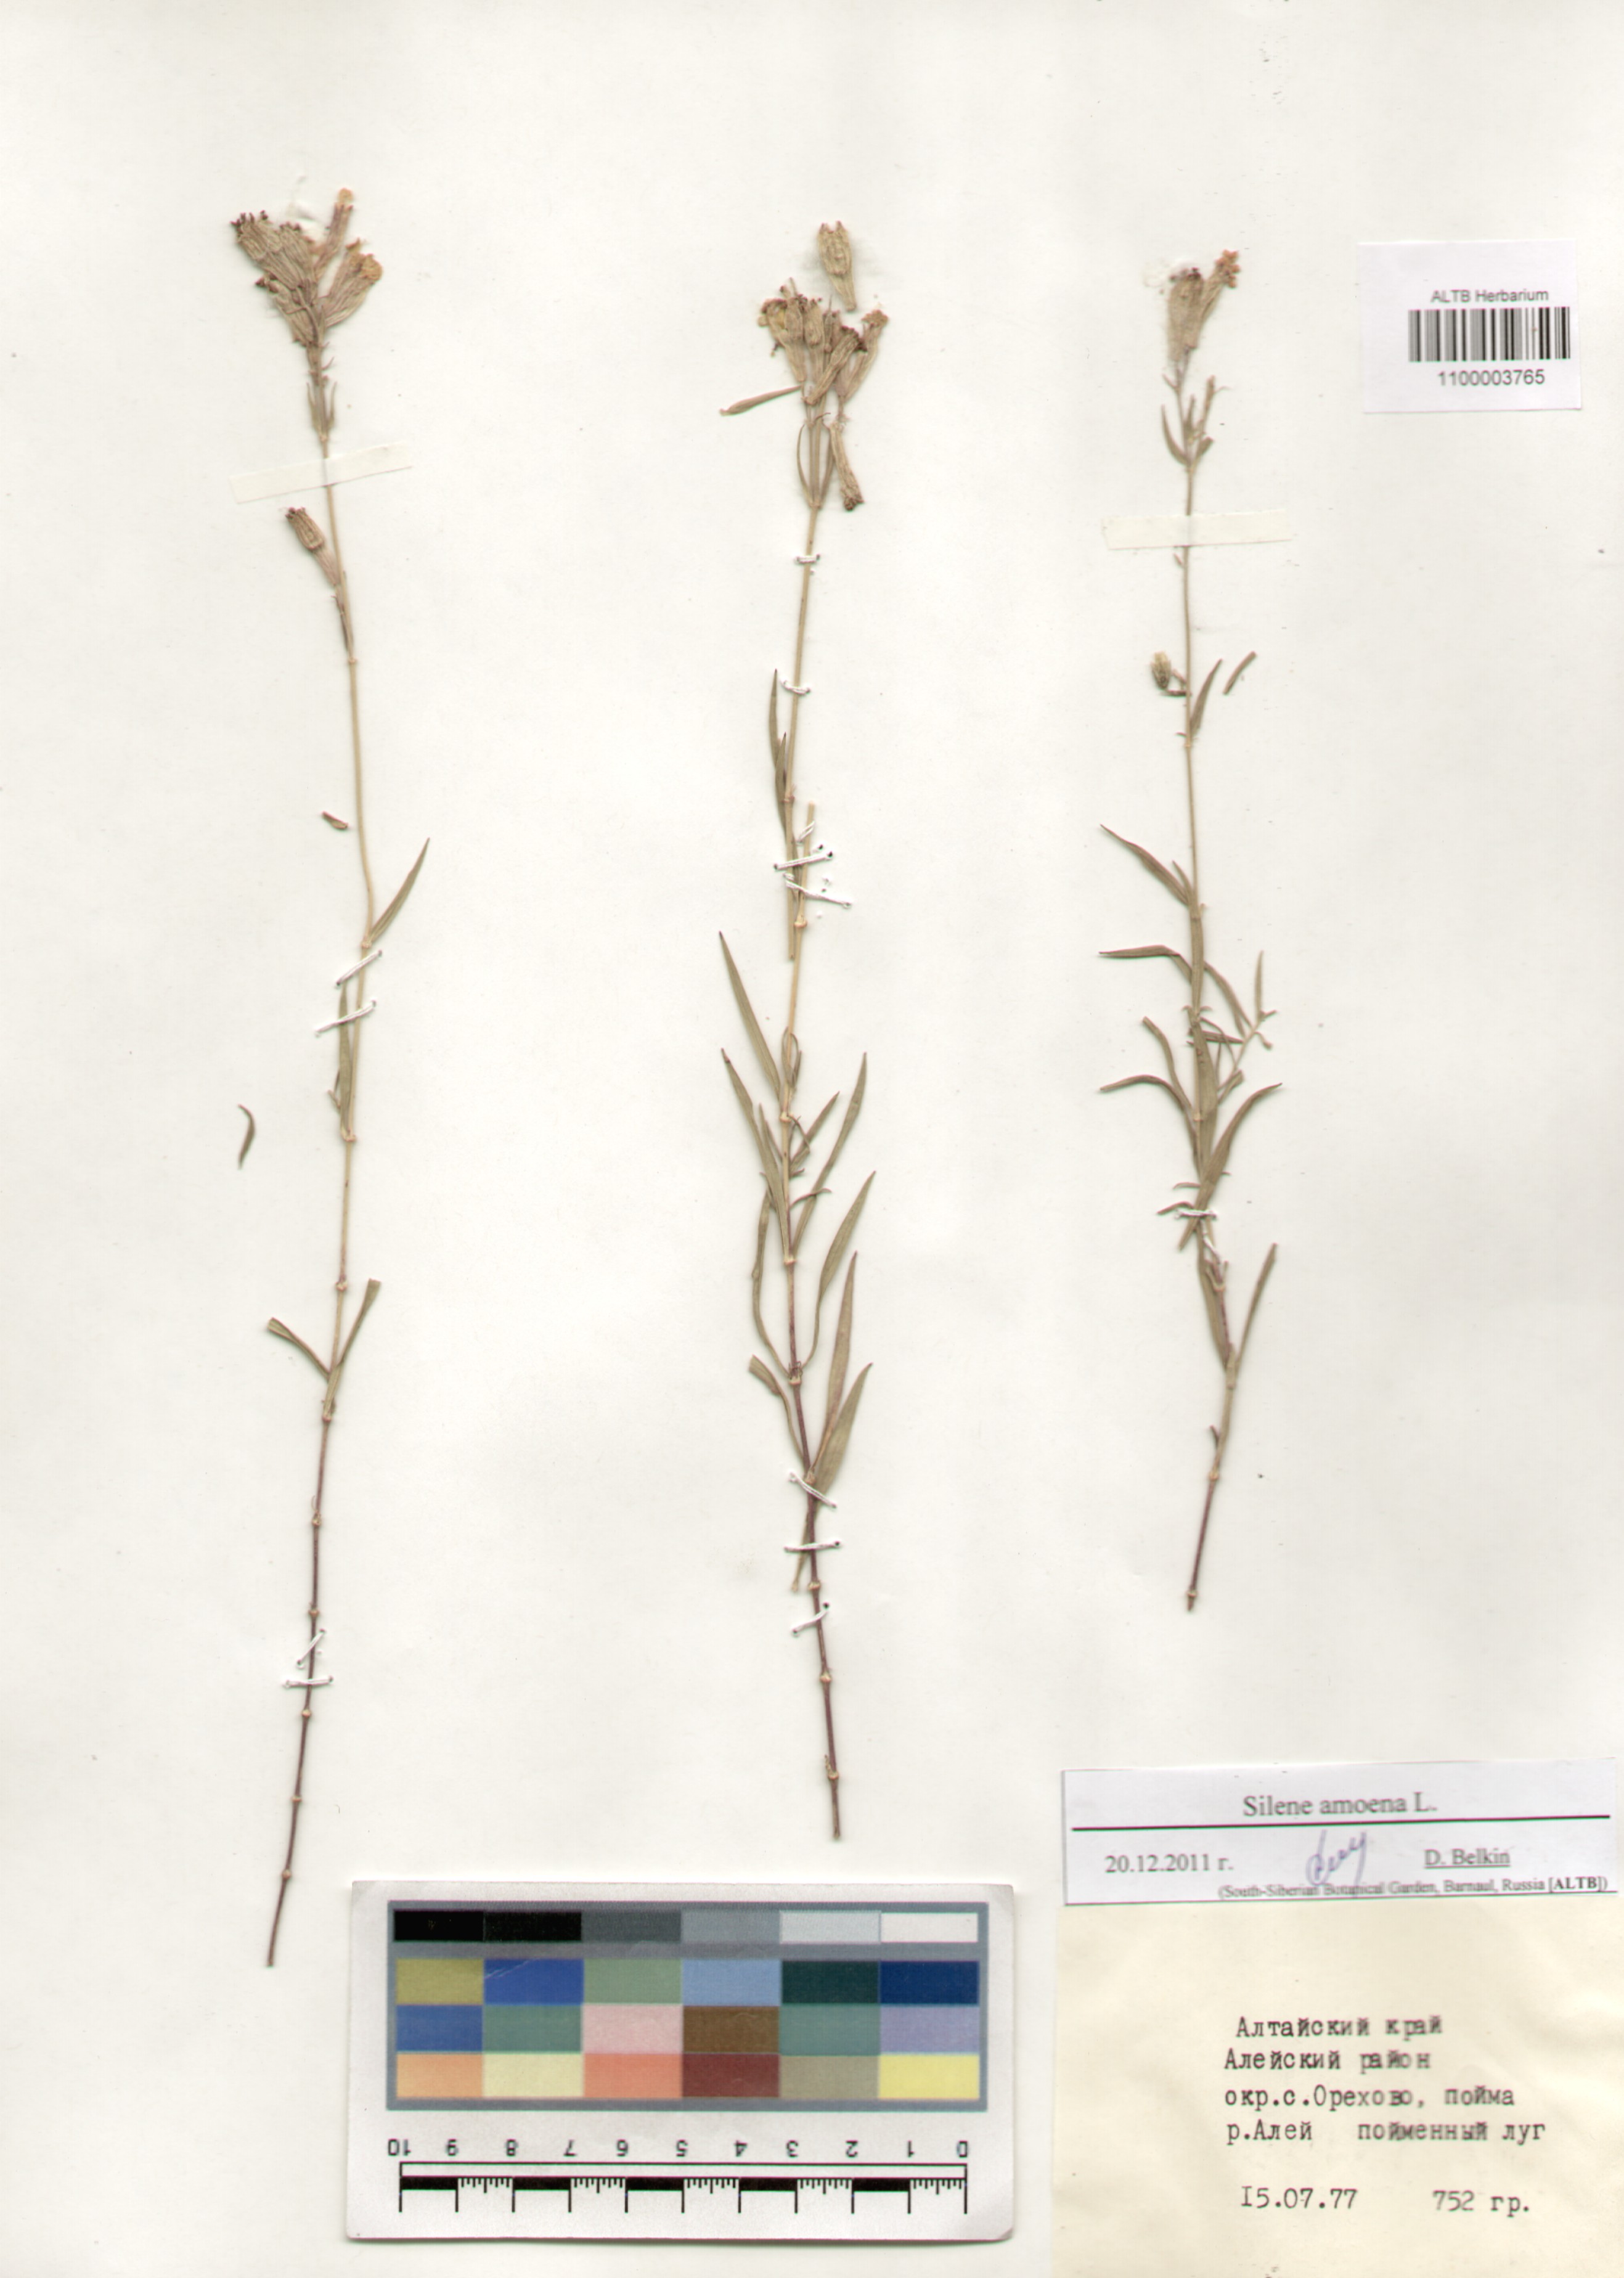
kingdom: Plantae
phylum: Tracheophyta
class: Magnoliopsida
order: Caryophyllales
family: Caryophyllaceae
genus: Silene
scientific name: Silene amoena
